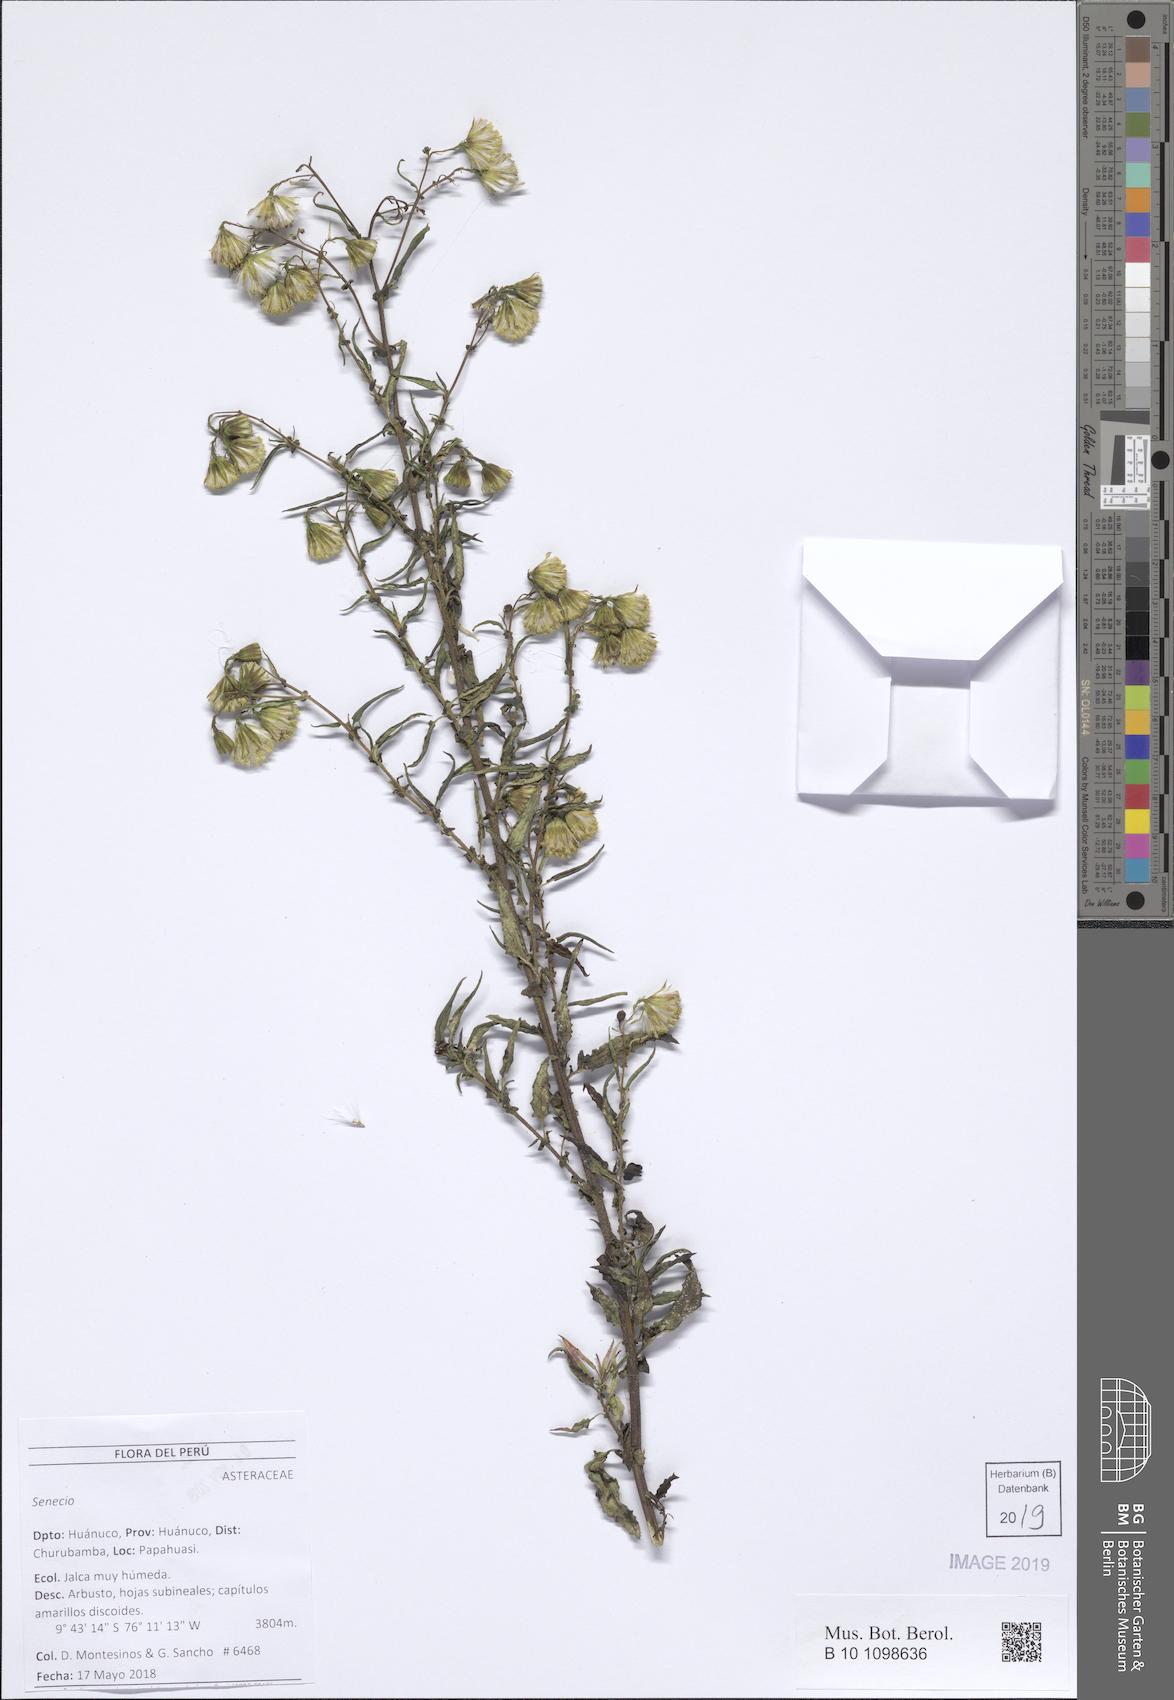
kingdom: Plantae
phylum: Tracheophyta
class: Magnoliopsida
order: Asterales
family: Asteraceae
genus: Senecio
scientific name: Senecio
